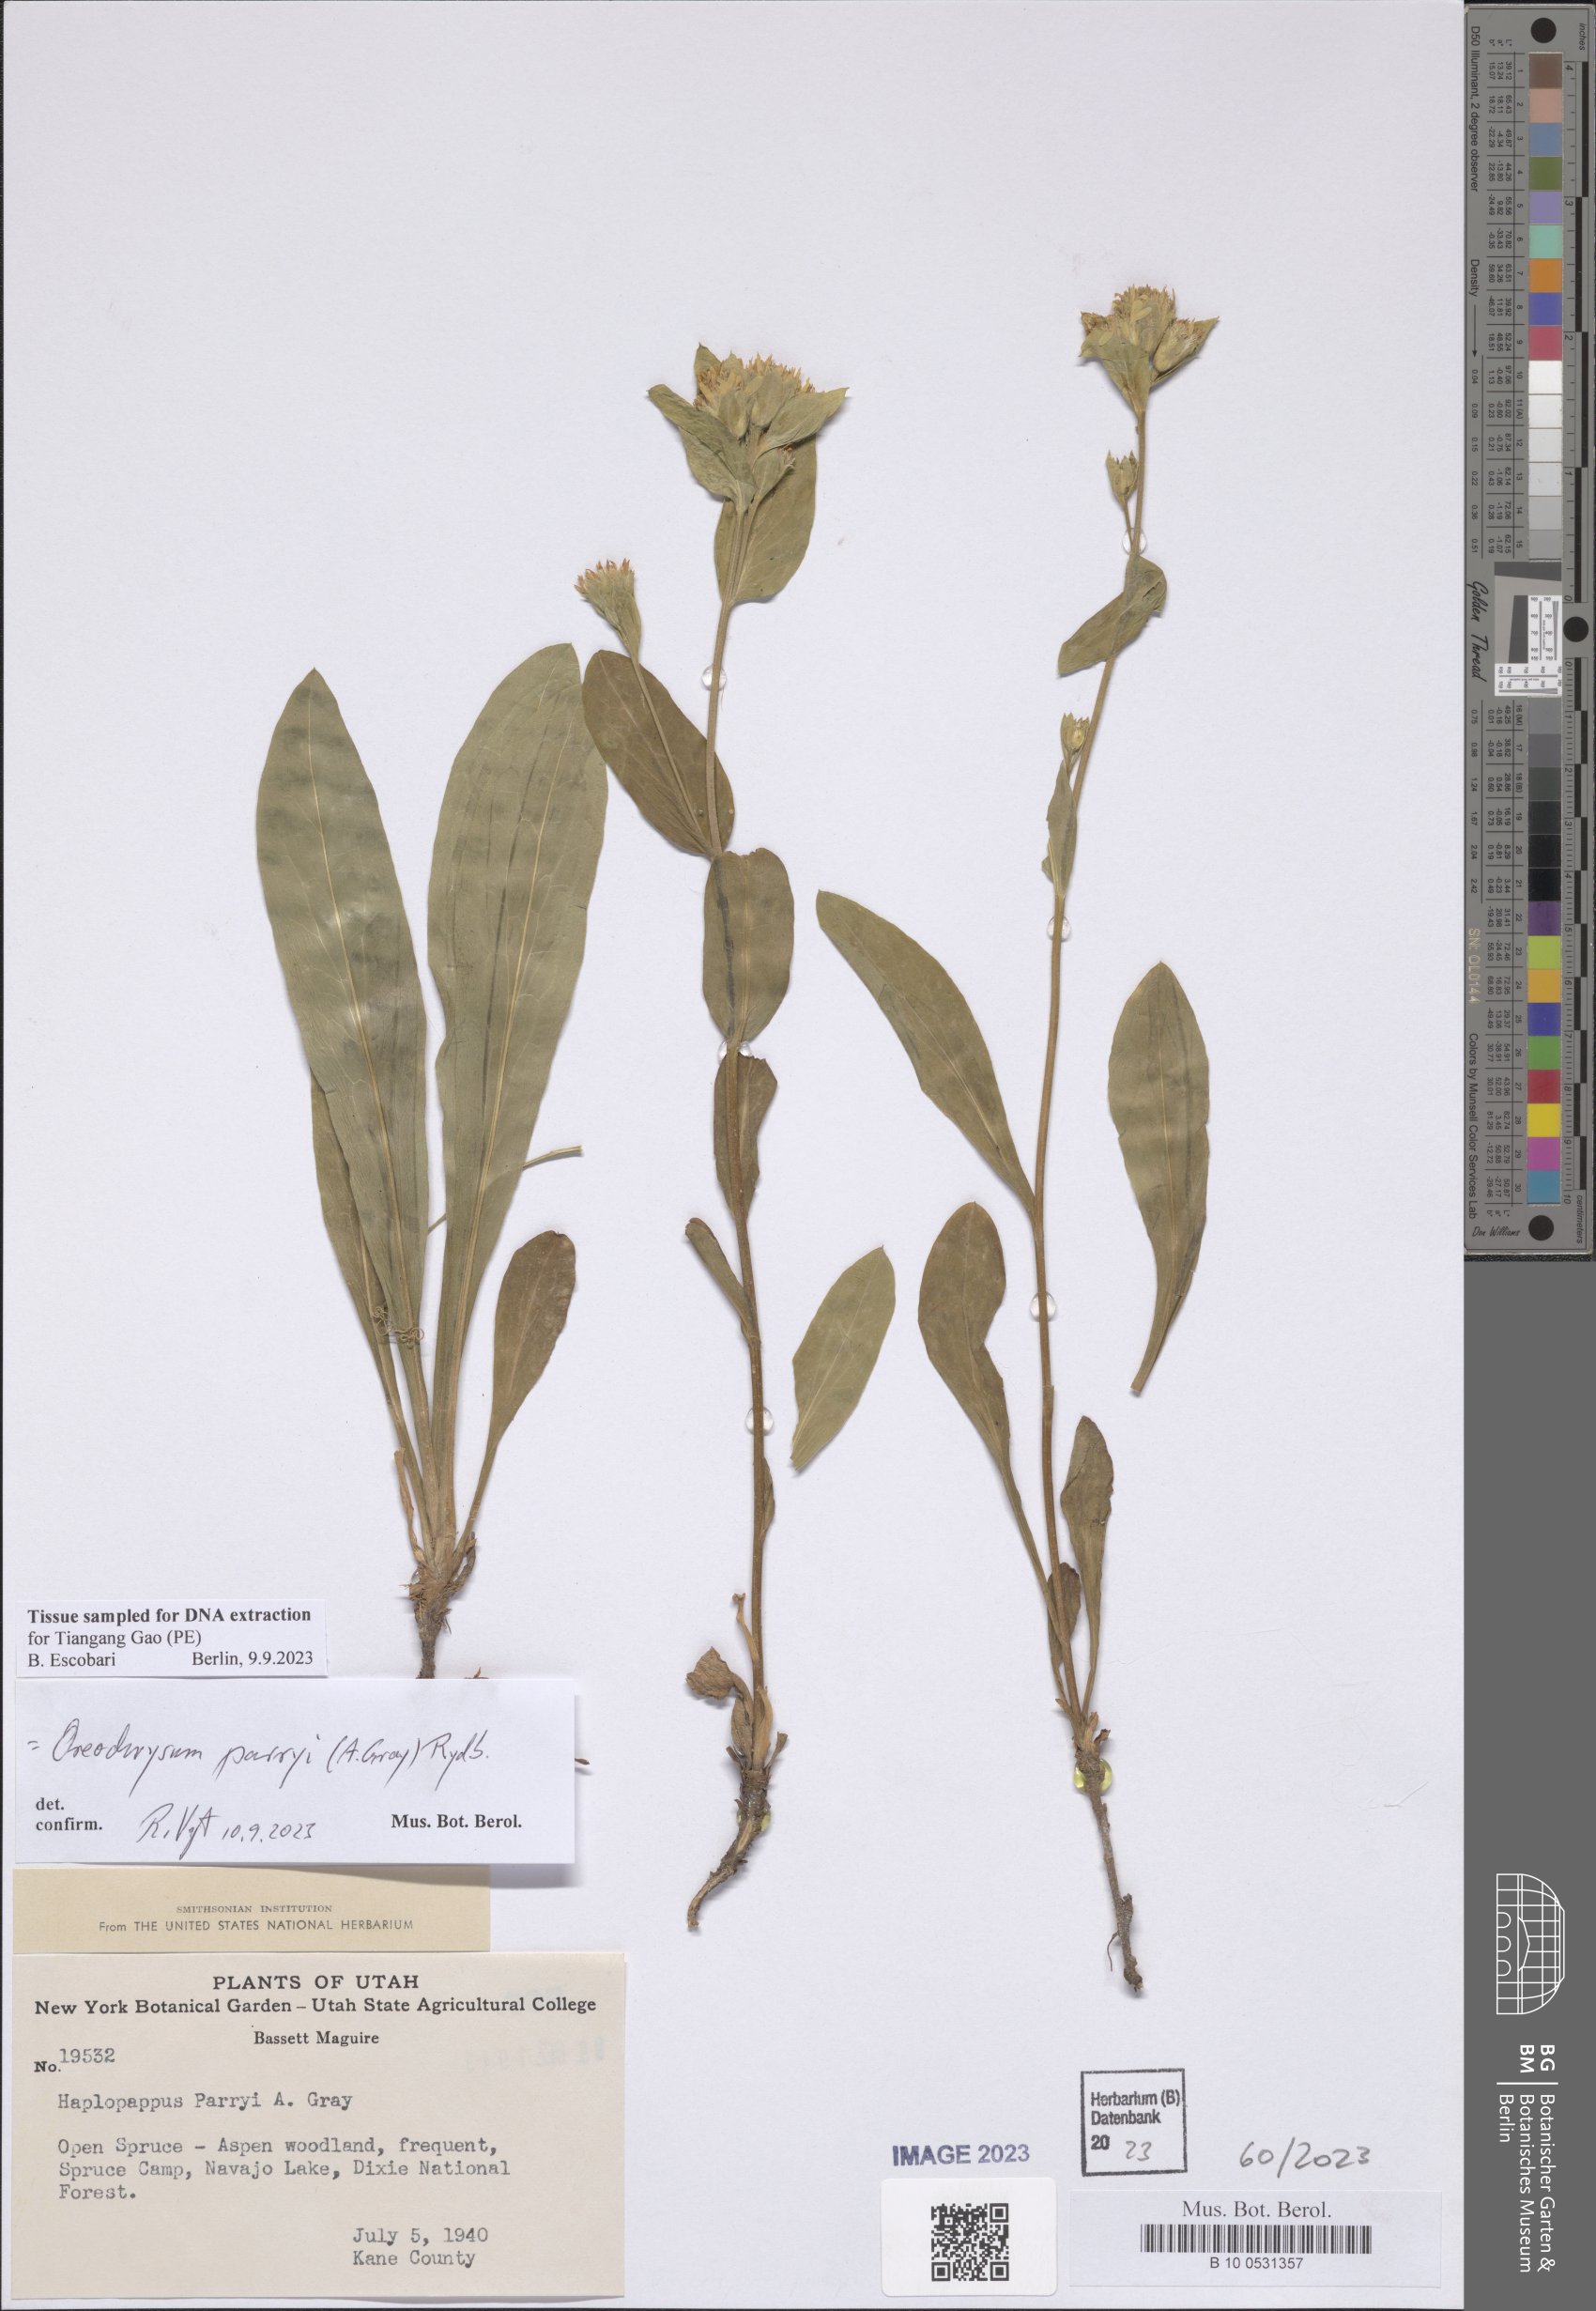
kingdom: Plantae
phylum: Tracheophyta
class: Magnoliopsida
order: Asterales
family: Asteraceae
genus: Oreochrysum
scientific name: Oreochrysum parryi
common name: Parry's goldenweed
